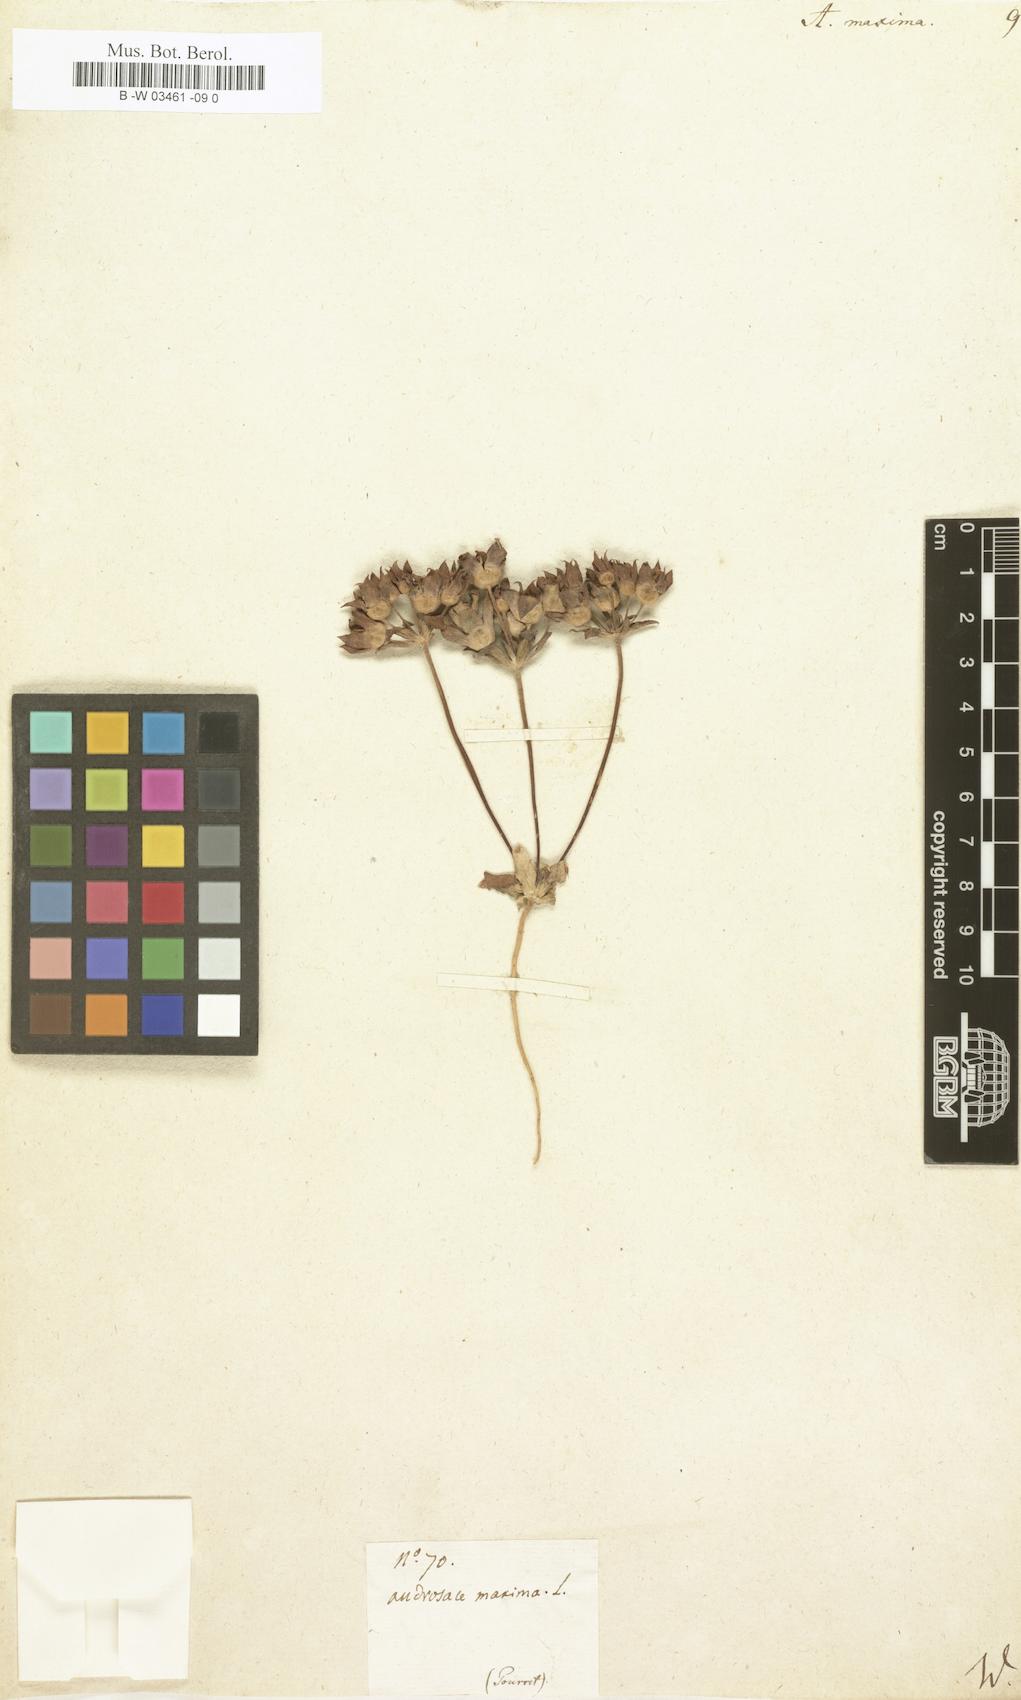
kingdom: Plantae
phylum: Tracheophyta
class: Magnoliopsida
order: Ericales
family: Primulaceae
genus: Androsace
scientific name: Androsace maxima
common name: Annual androsace
